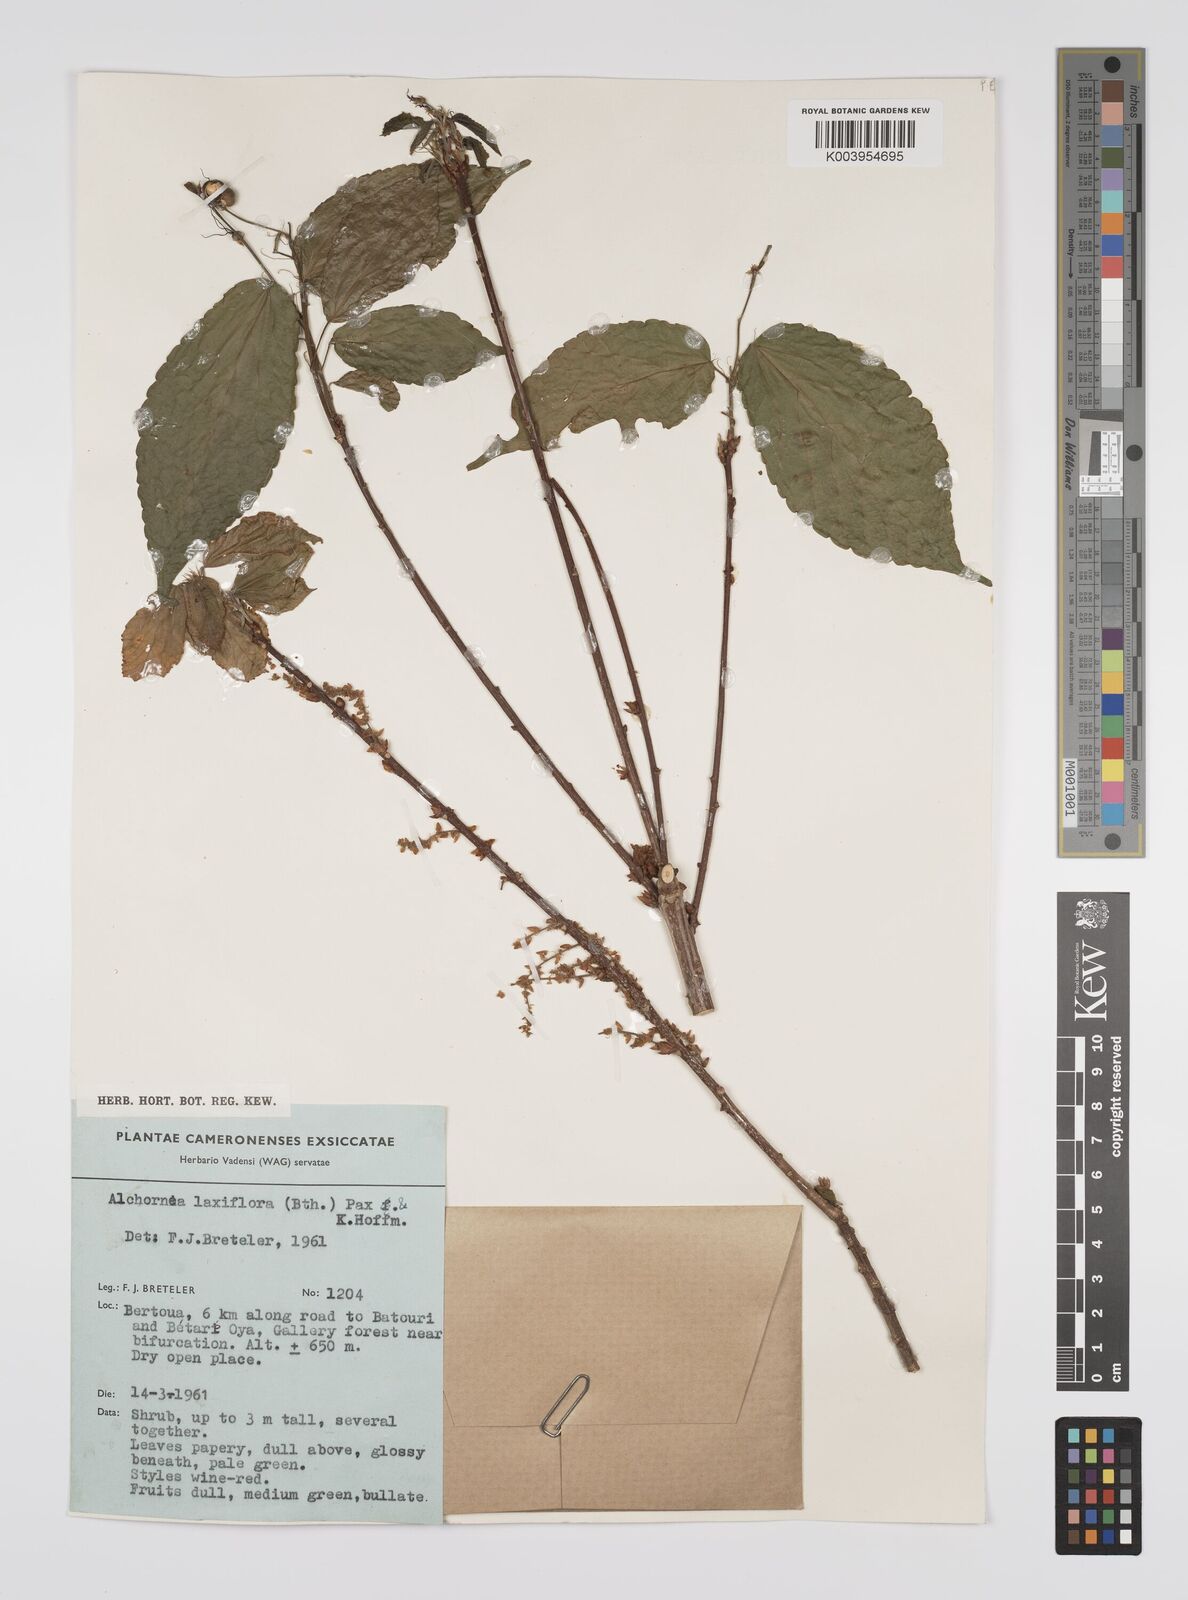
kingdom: Plantae
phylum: Tracheophyta
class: Magnoliopsida
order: Malpighiales
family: Euphorbiaceae
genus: Alchornea
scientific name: Alchornea laxiflora
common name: Lowveld bead-string
